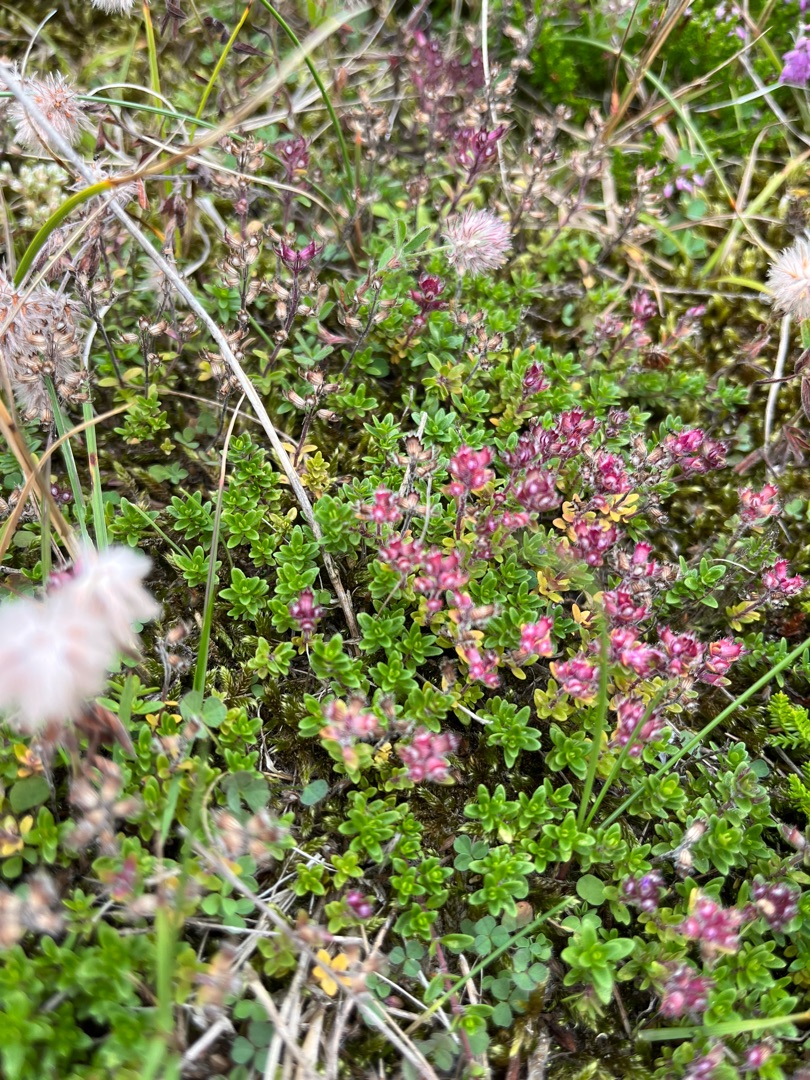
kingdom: Plantae
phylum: Tracheophyta
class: Magnoliopsida
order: Lamiales
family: Lamiaceae
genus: Thymus
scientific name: Thymus serpyllum
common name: Smalbladet timian
